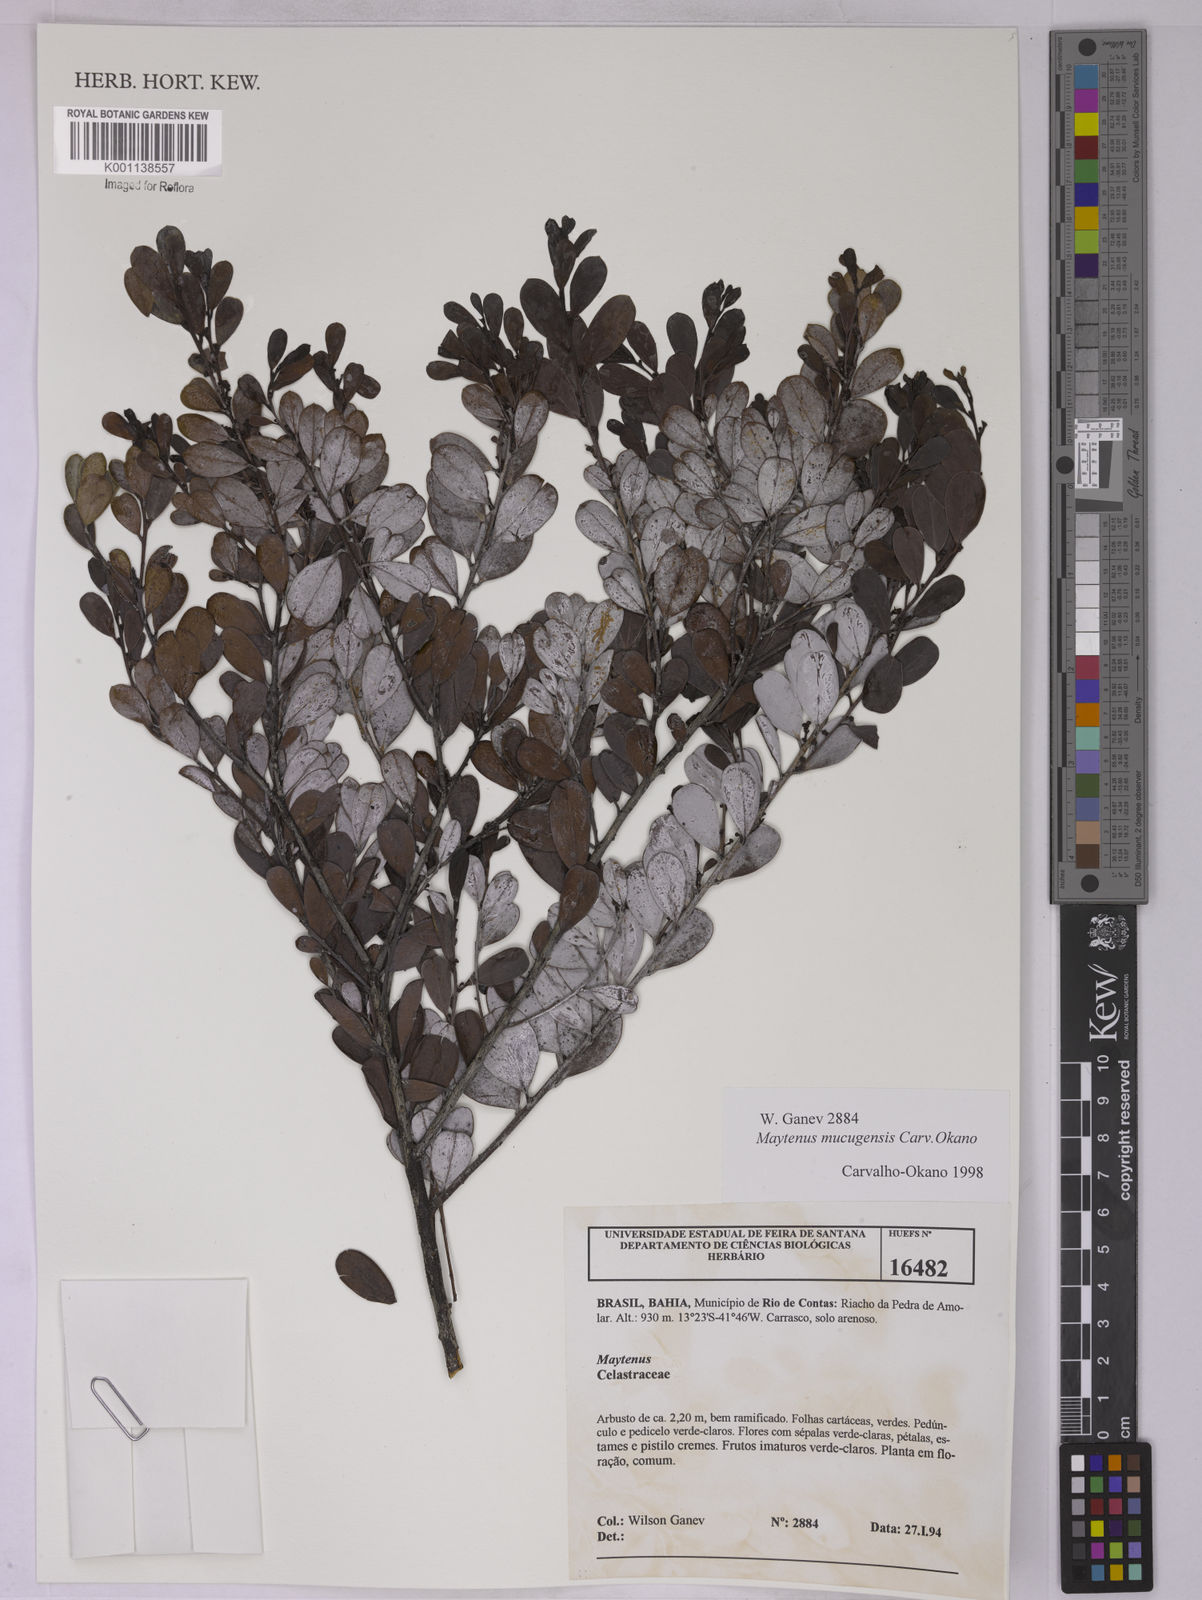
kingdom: Plantae
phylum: Tracheophyta
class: Magnoliopsida
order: Celastrales
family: Celastraceae
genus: Monteverdia
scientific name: Monteverdia mucugensis
